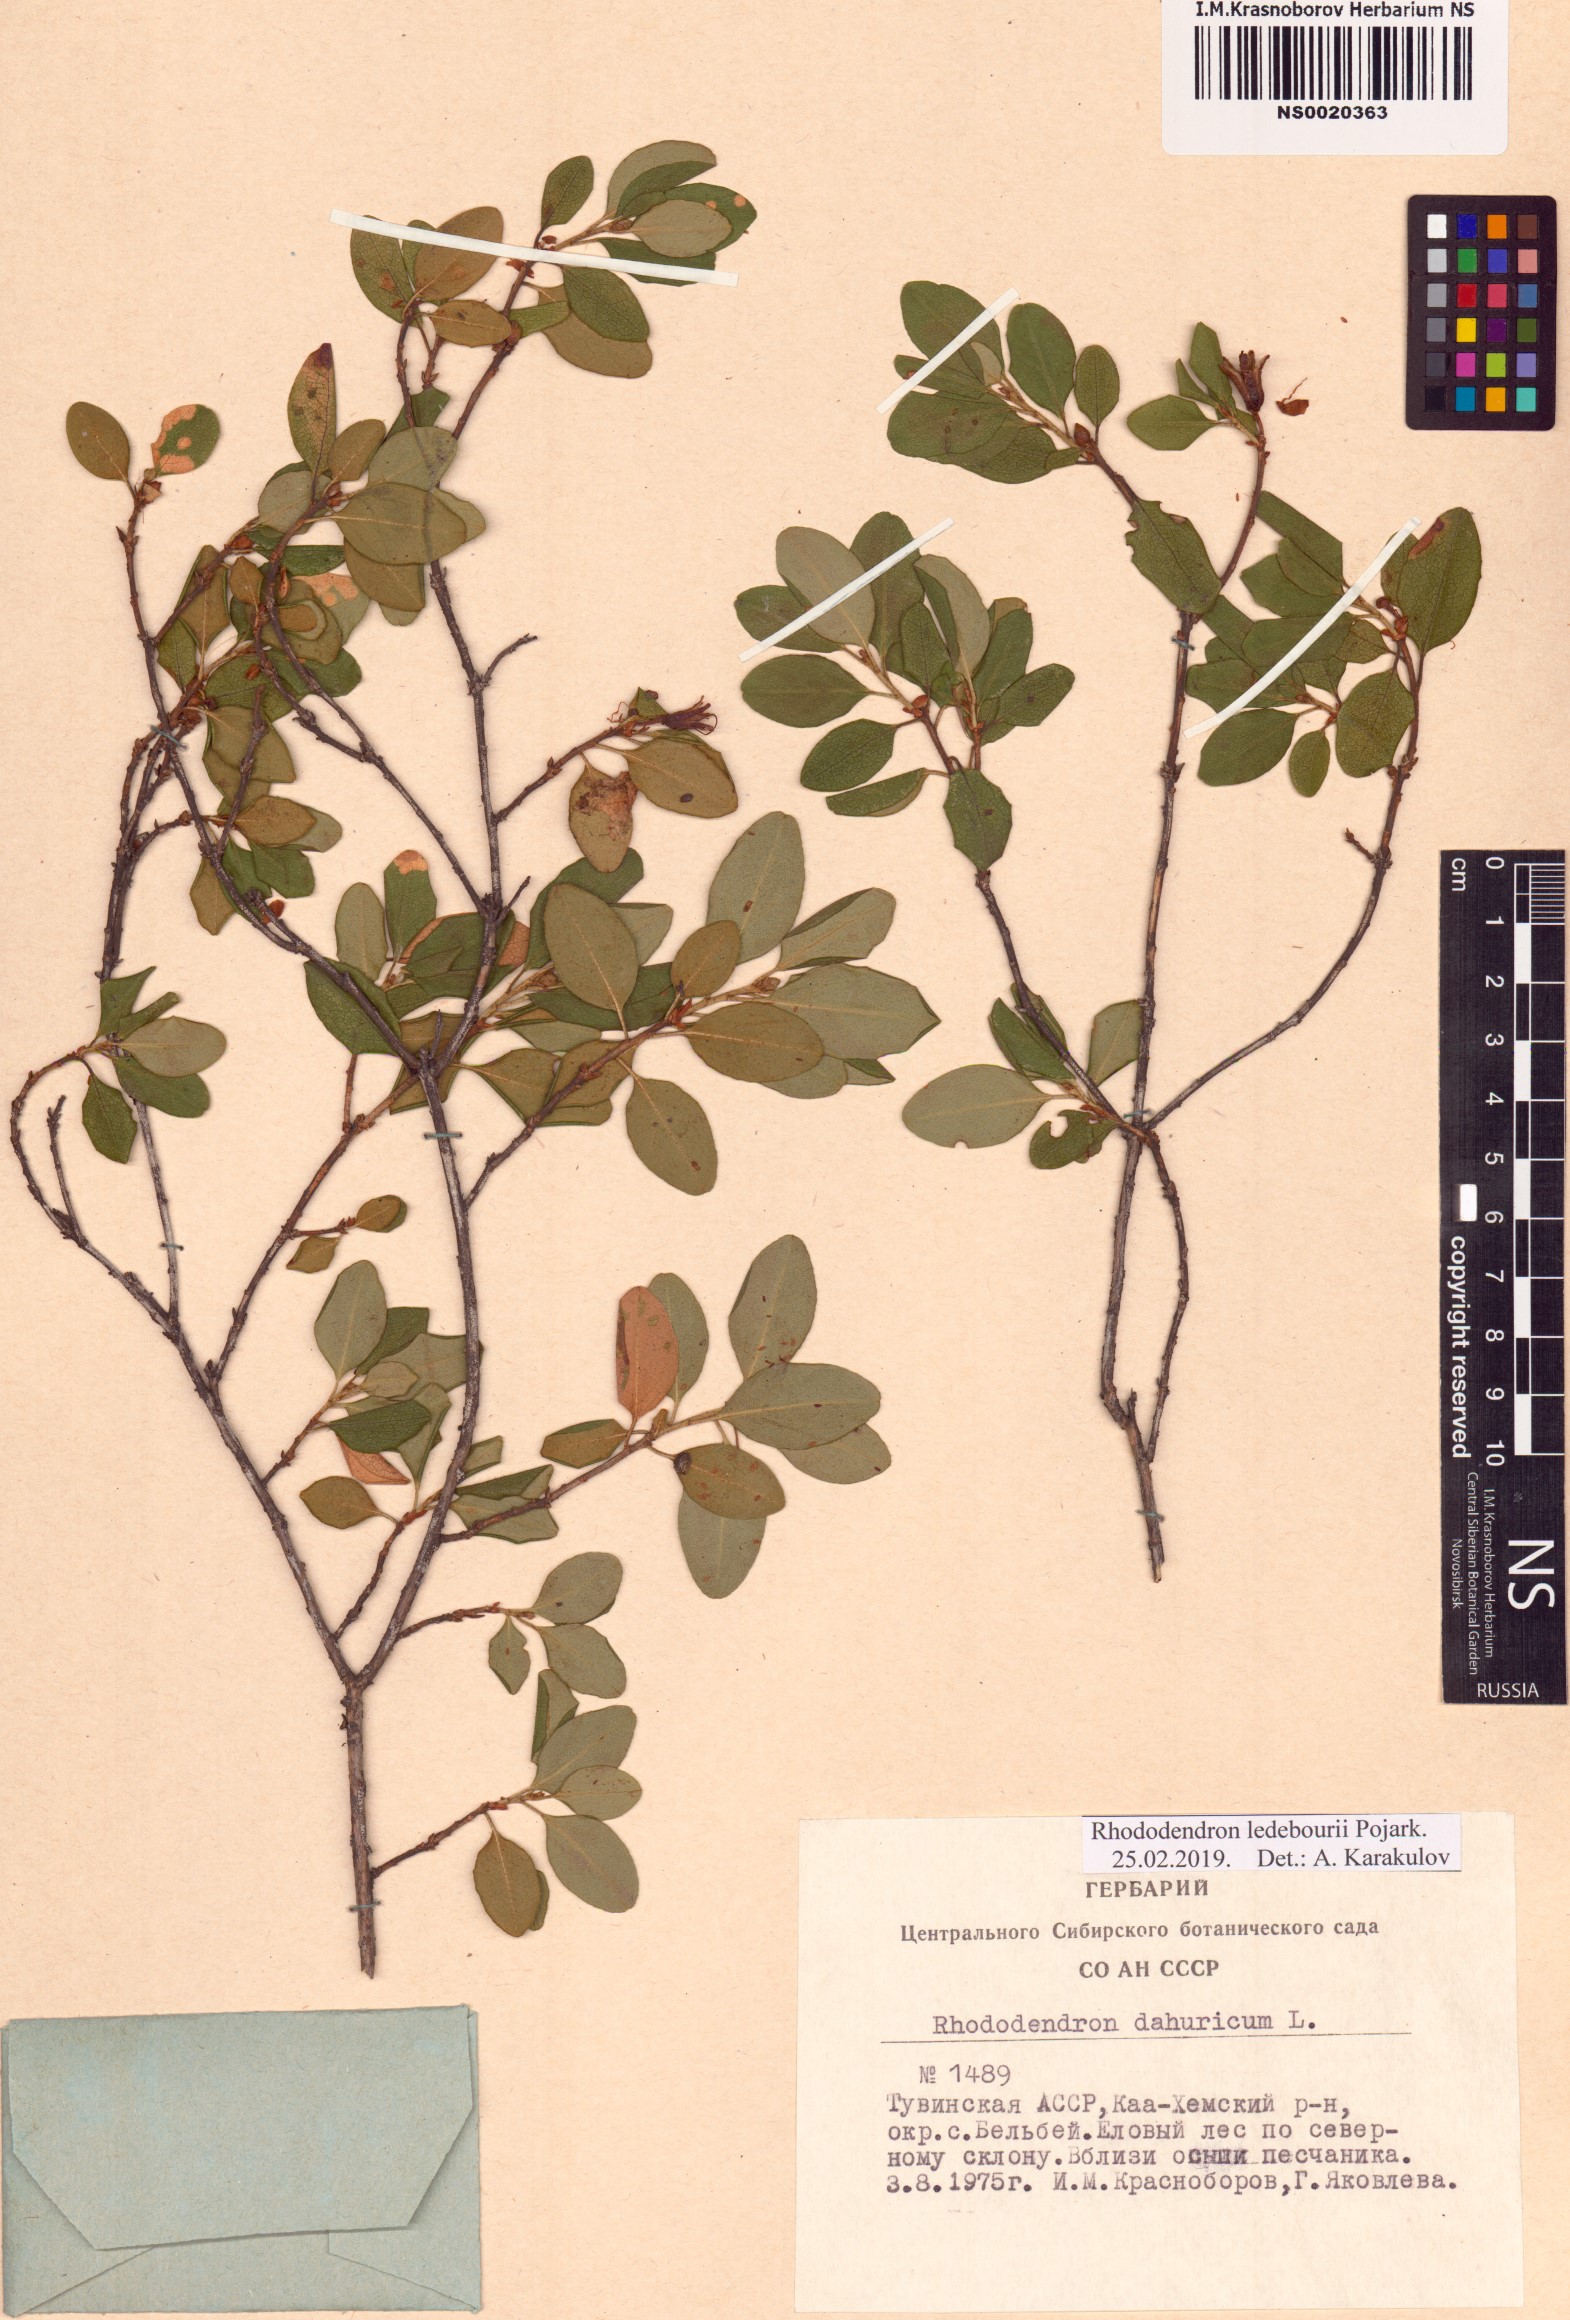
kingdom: Plantae
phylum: Tracheophyta
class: Magnoliopsida
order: Ericales
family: Ericaceae
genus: Rhododendron
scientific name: Rhododendron dauricum
